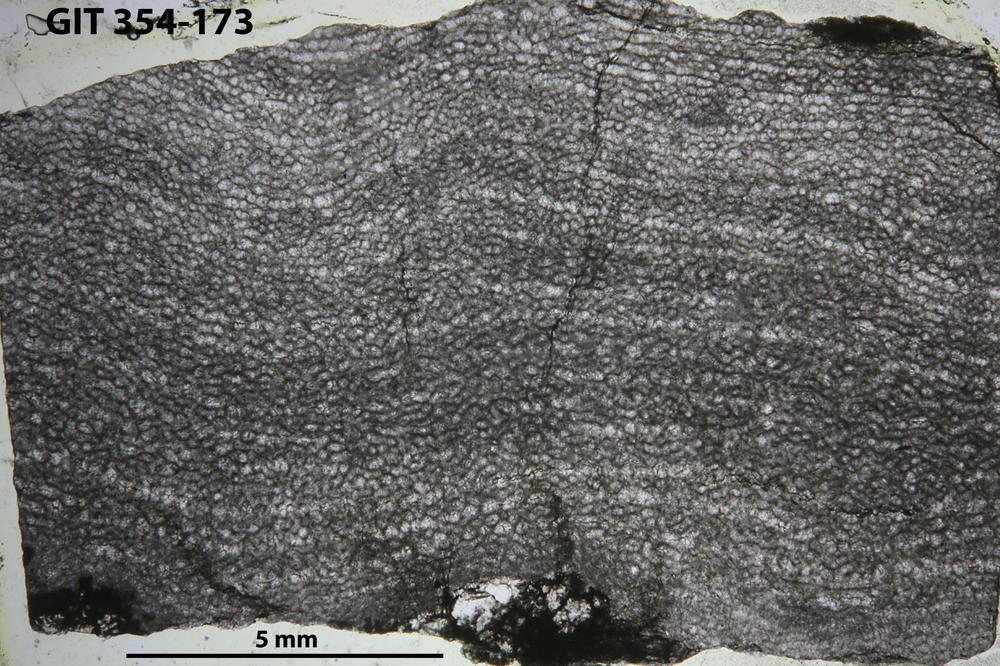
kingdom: Animalia
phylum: Porifera
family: Clathrodictyidae
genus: Clathrodictyon
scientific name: Clathrodictyon kudriavzevi
